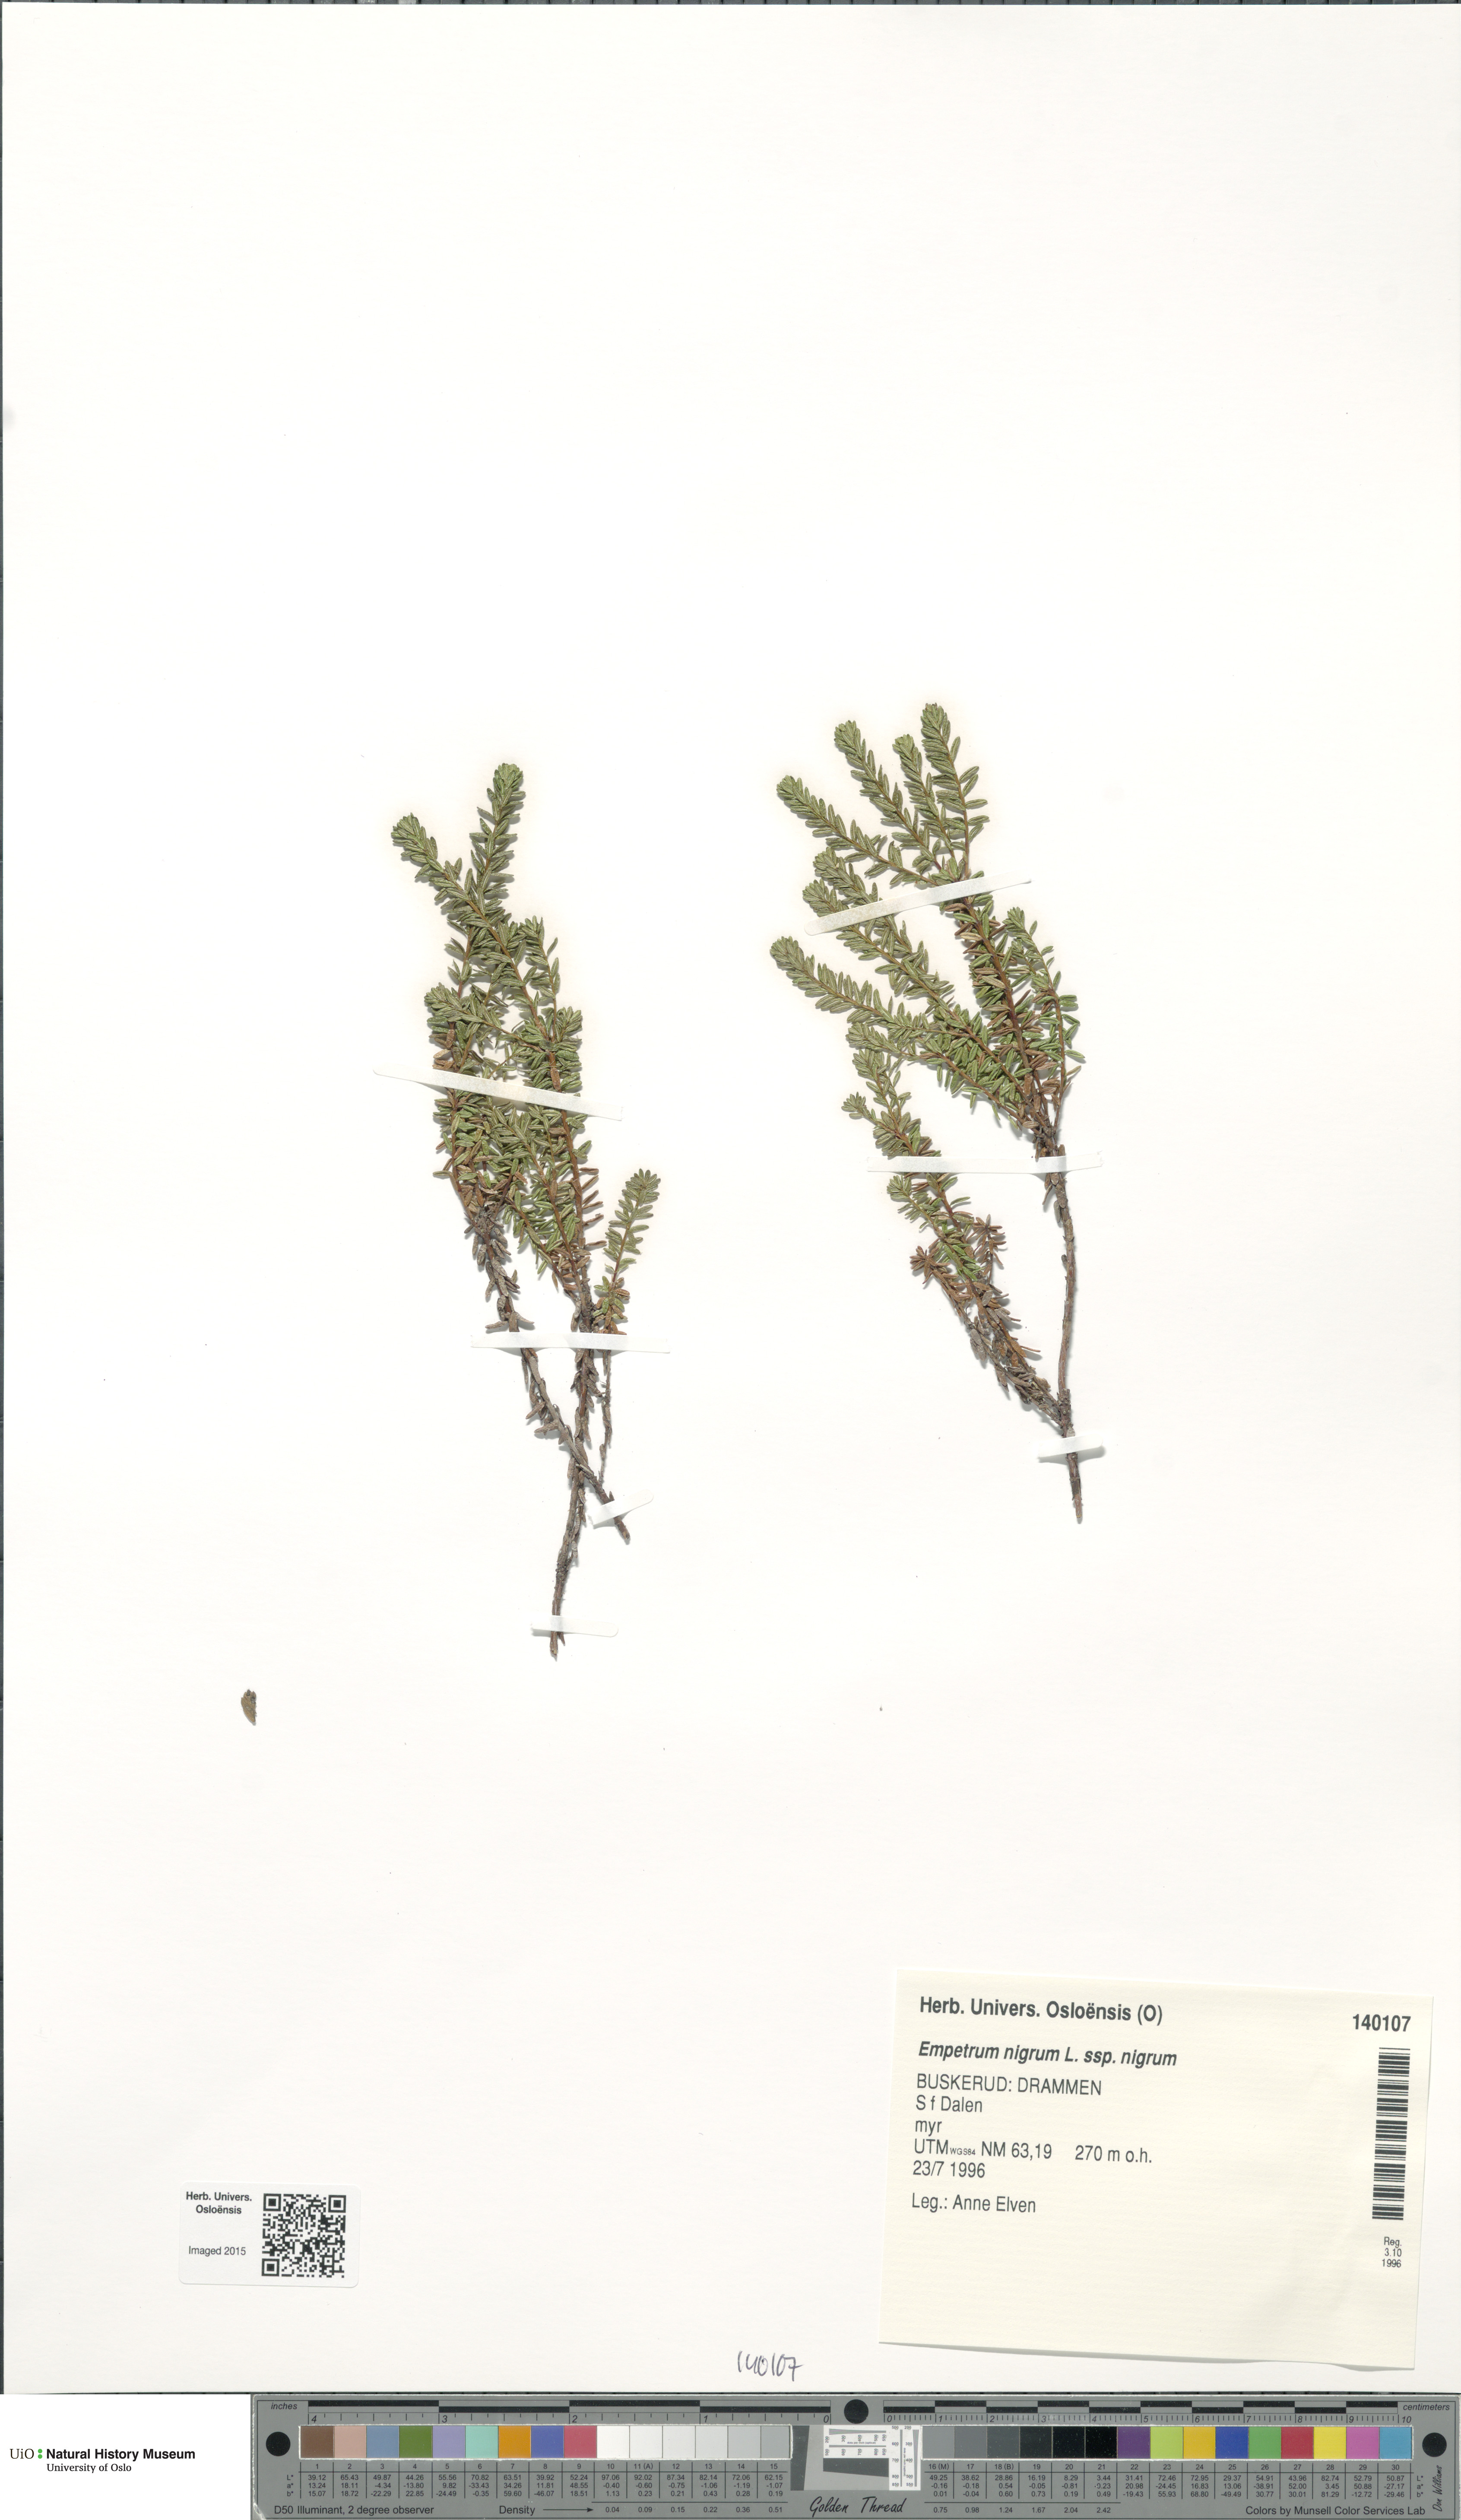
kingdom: Plantae
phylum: Tracheophyta
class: Magnoliopsida
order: Ericales
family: Ericaceae
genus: Empetrum
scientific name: Empetrum nigrum
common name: Black crowberry
